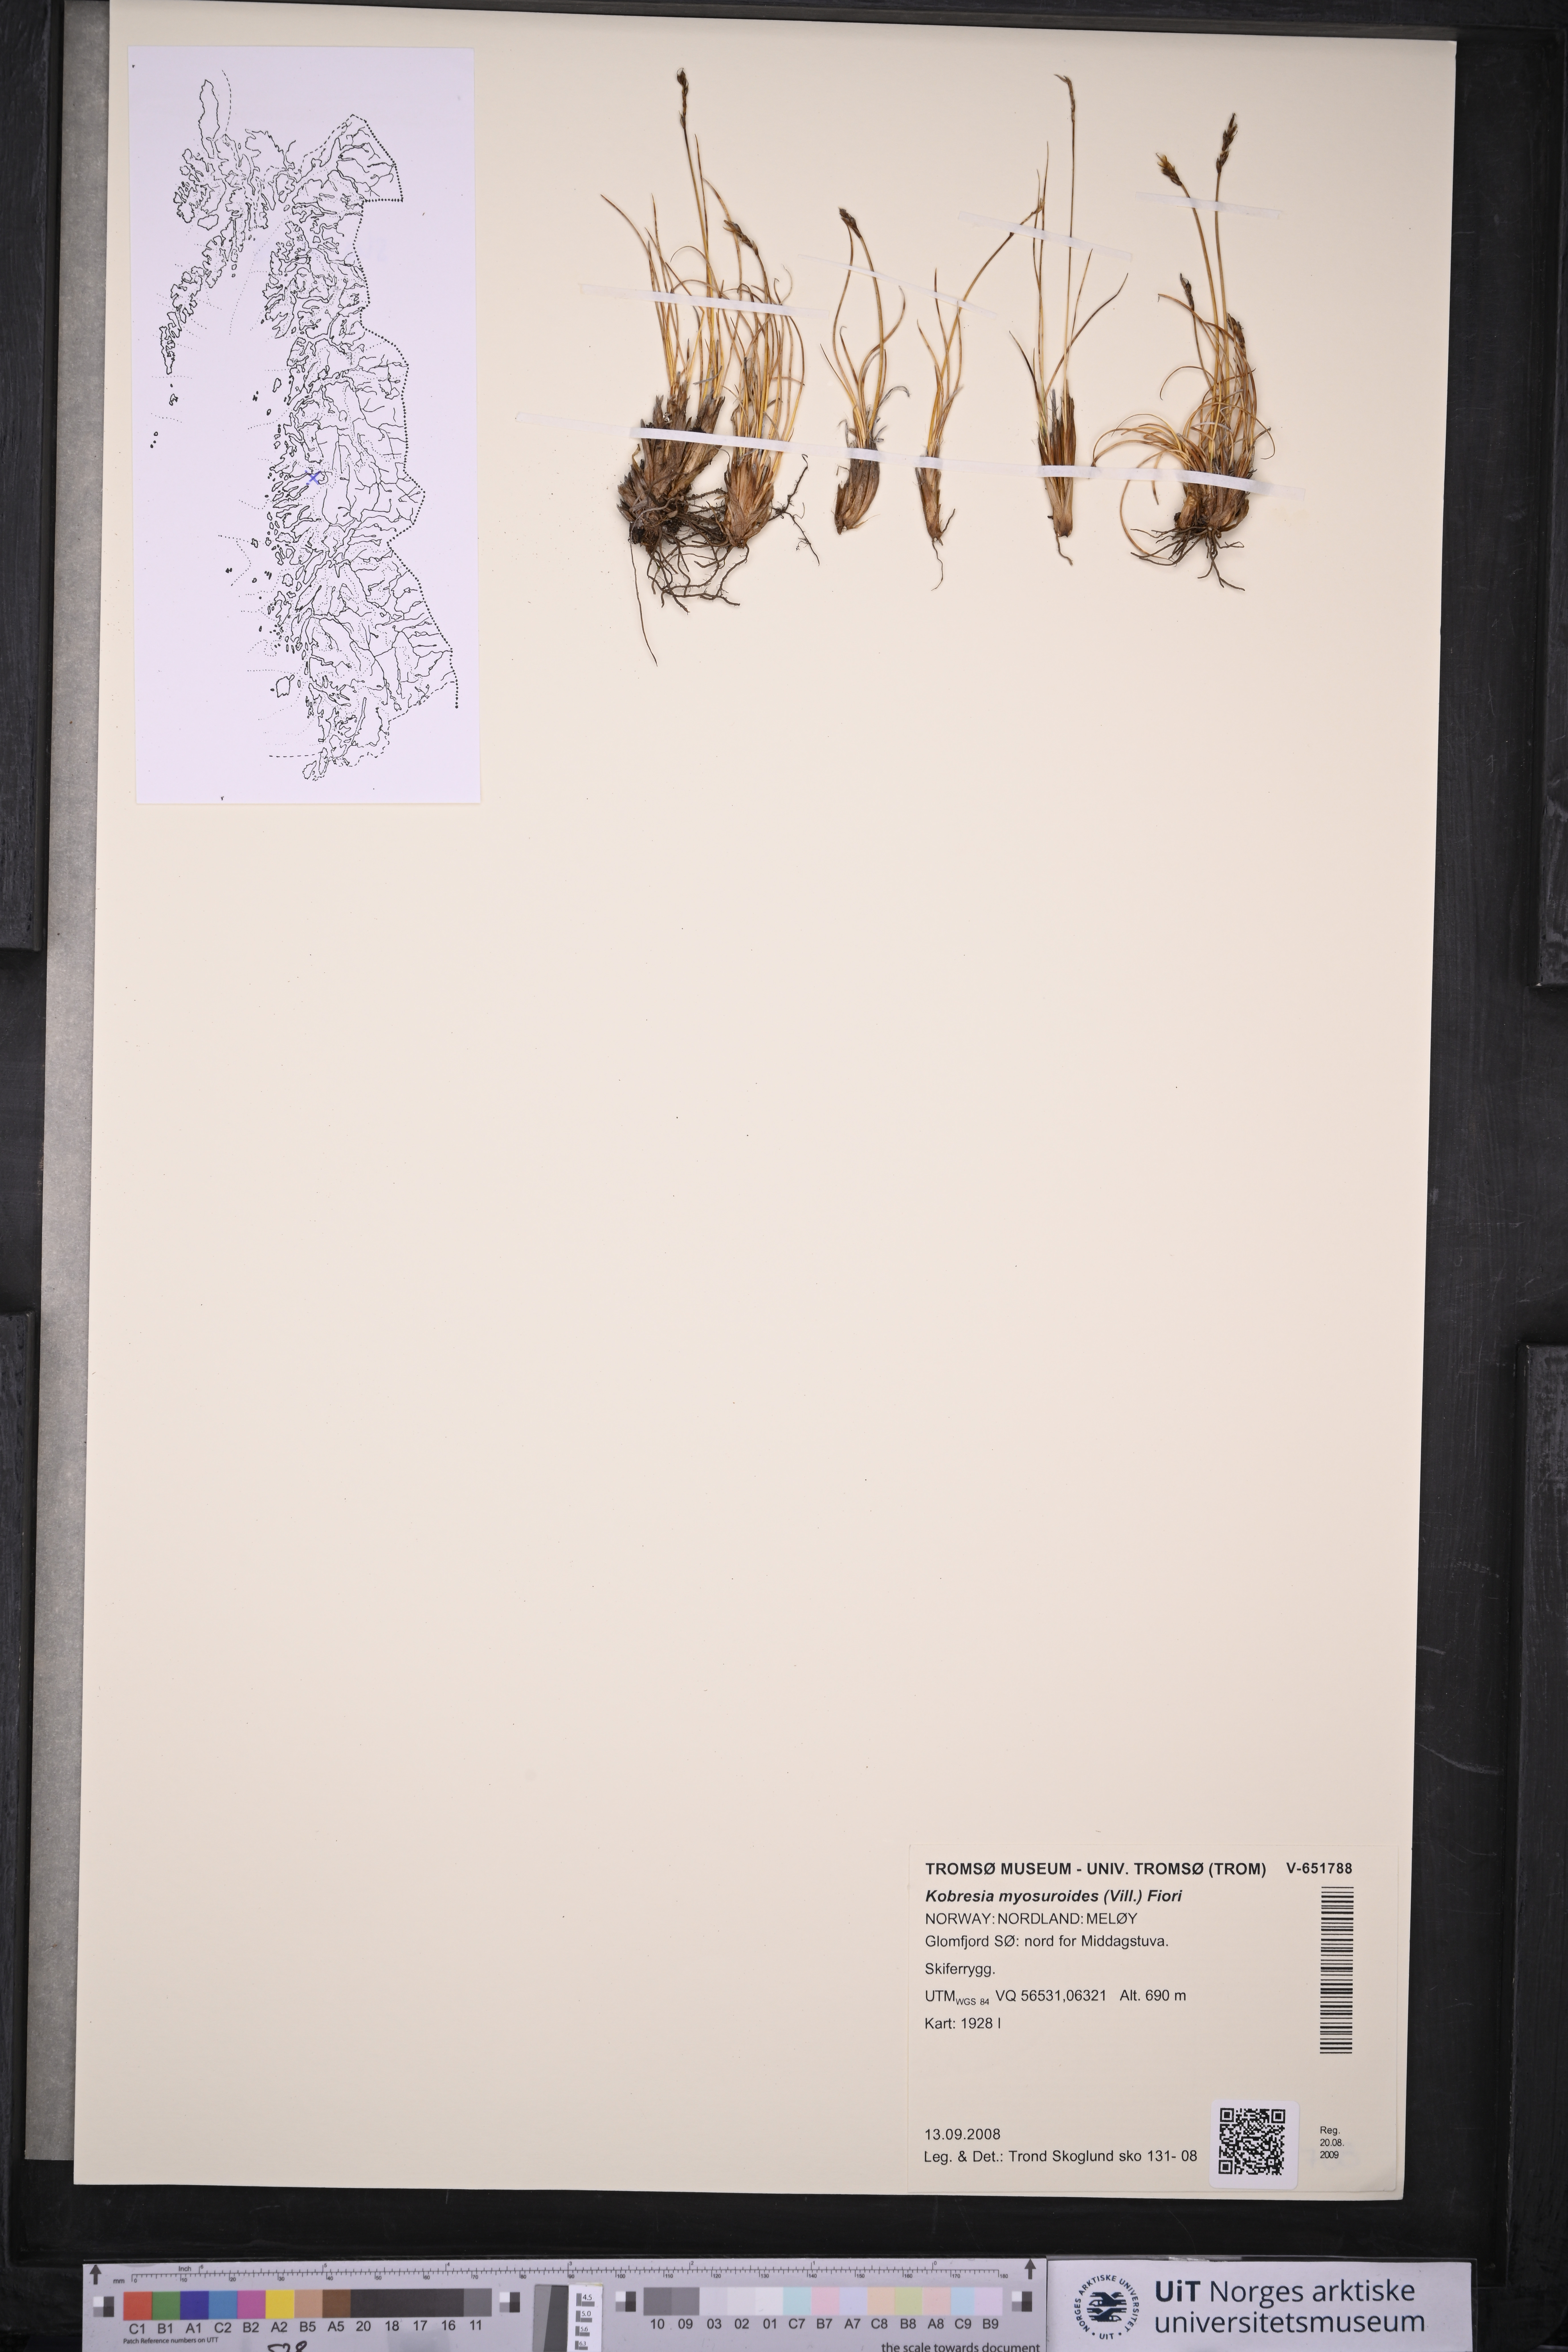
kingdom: Plantae
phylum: Tracheophyta
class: Liliopsida
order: Poales
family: Cyperaceae
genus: Carex
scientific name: Carex myosuroides
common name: Bellard's bog sedge
